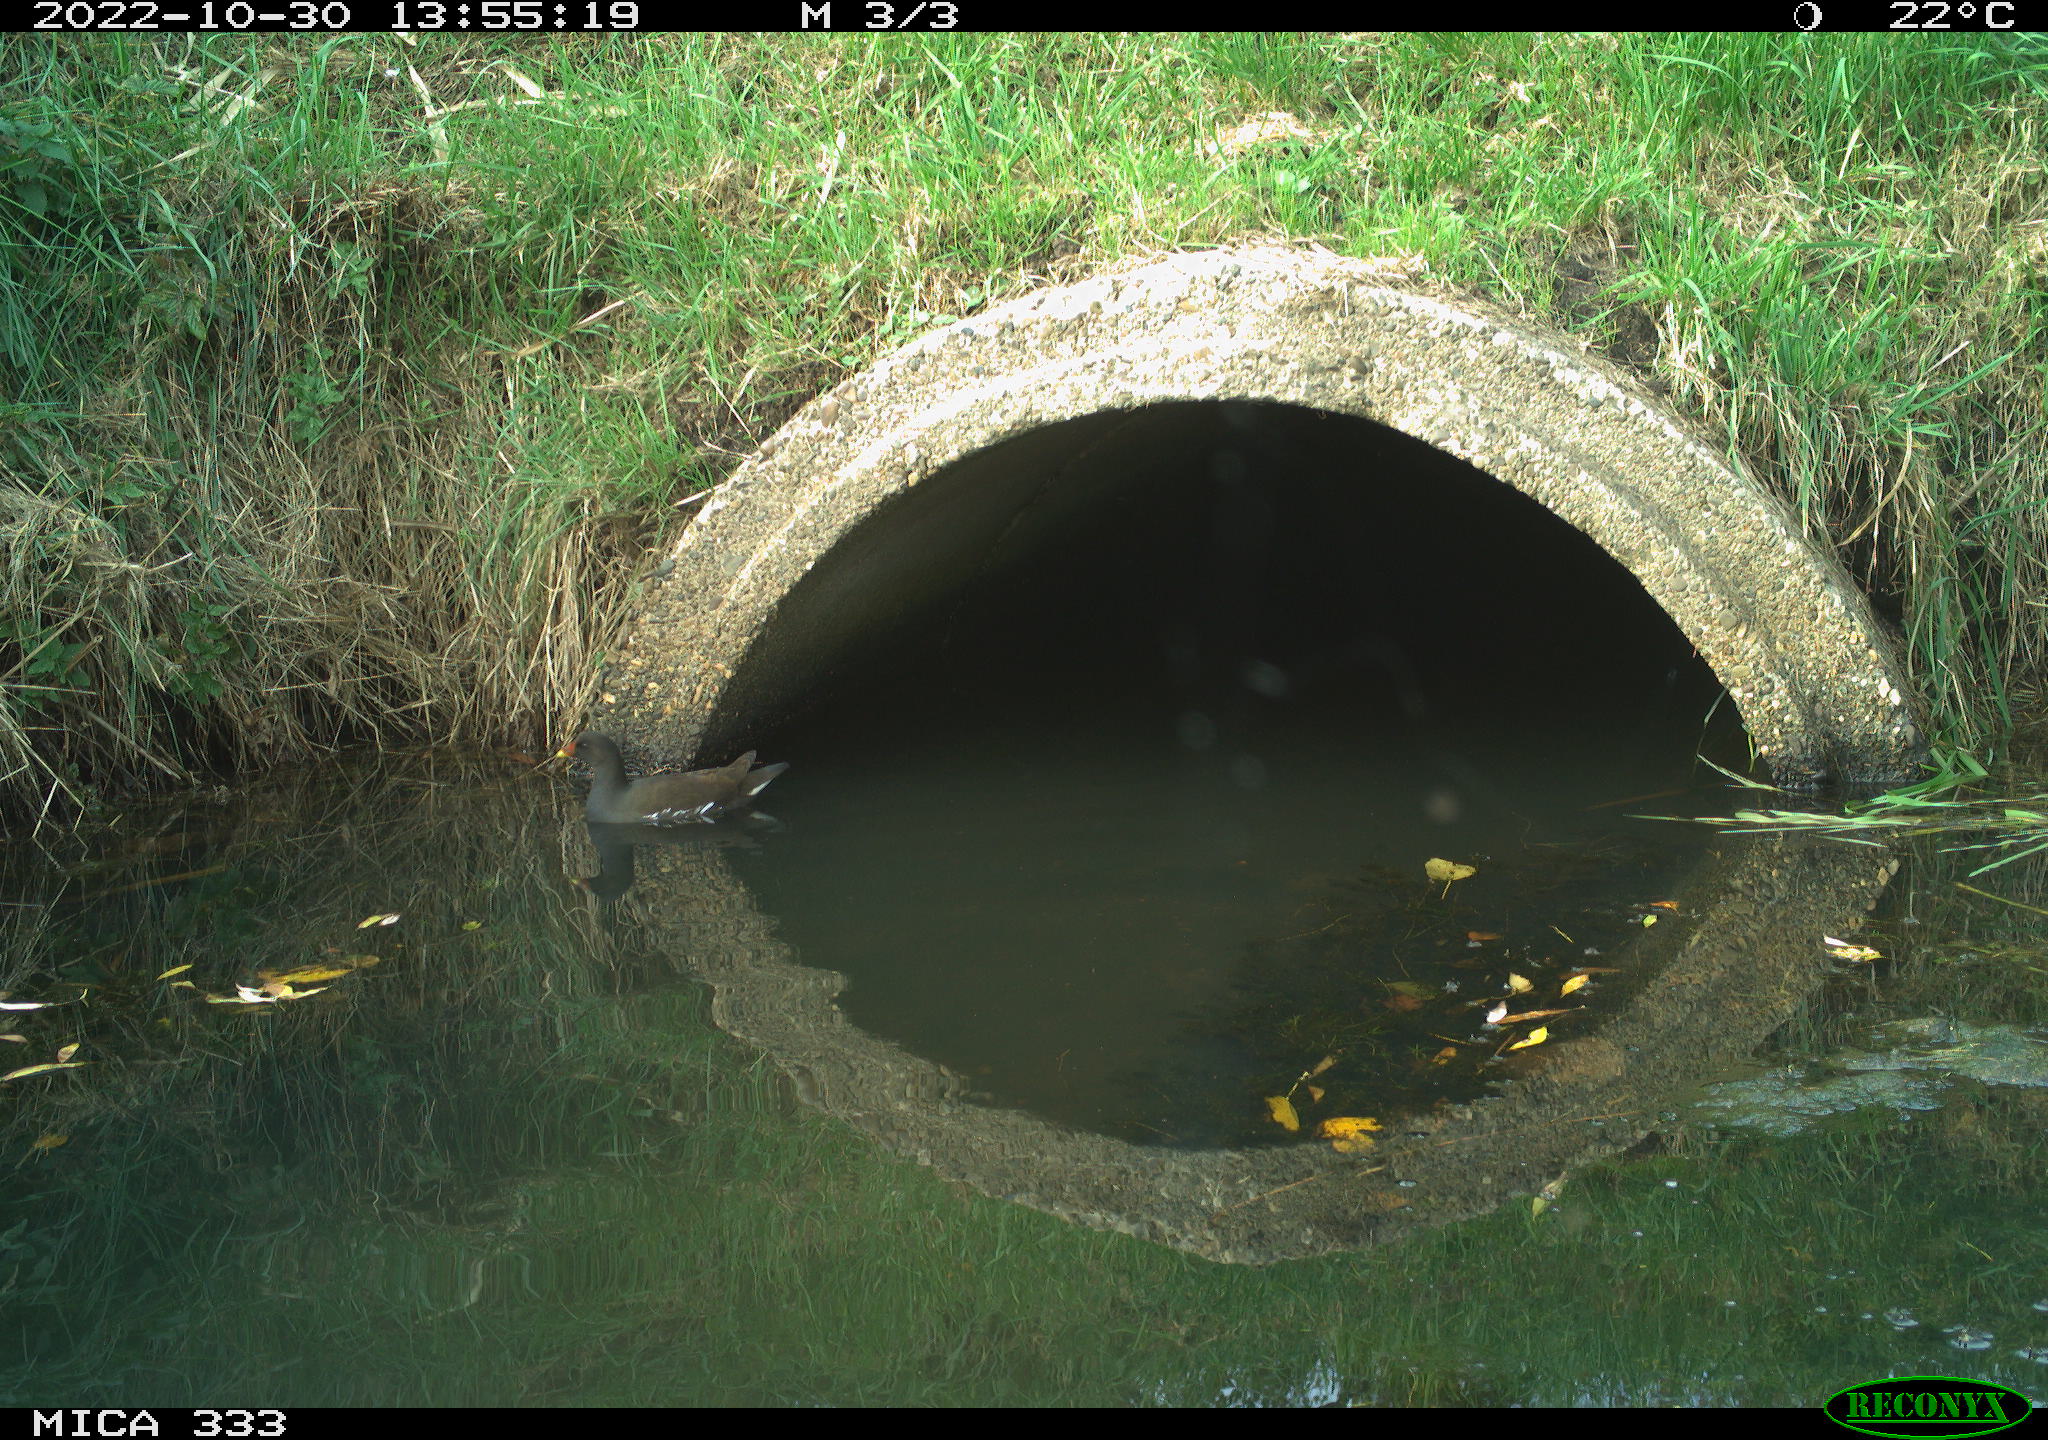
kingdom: Animalia
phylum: Chordata
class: Aves
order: Gruiformes
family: Rallidae
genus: Gallinula
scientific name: Gallinula chloropus
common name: Common moorhen
